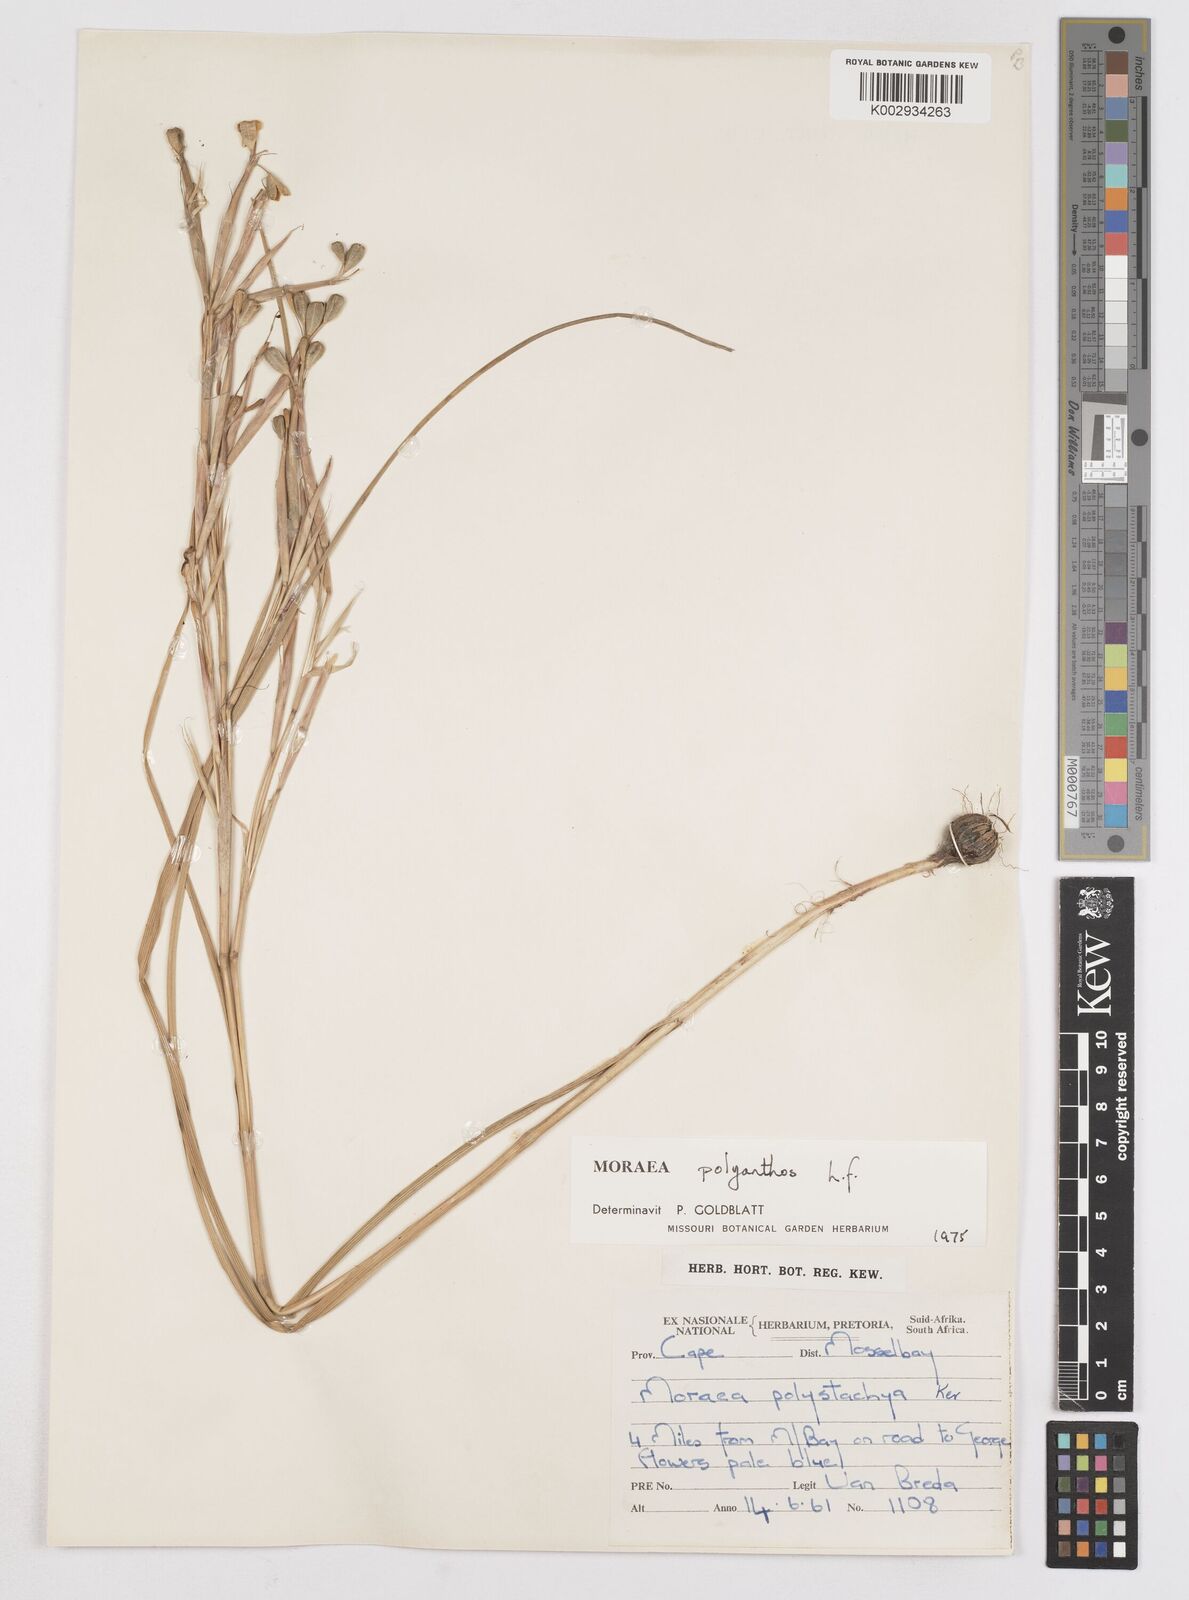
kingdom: Plantae
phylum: Tracheophyta
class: Liliopsida
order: Asparagales
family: Iridaceae
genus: Moraea
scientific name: Moraea bipartita
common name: Blue tulp
